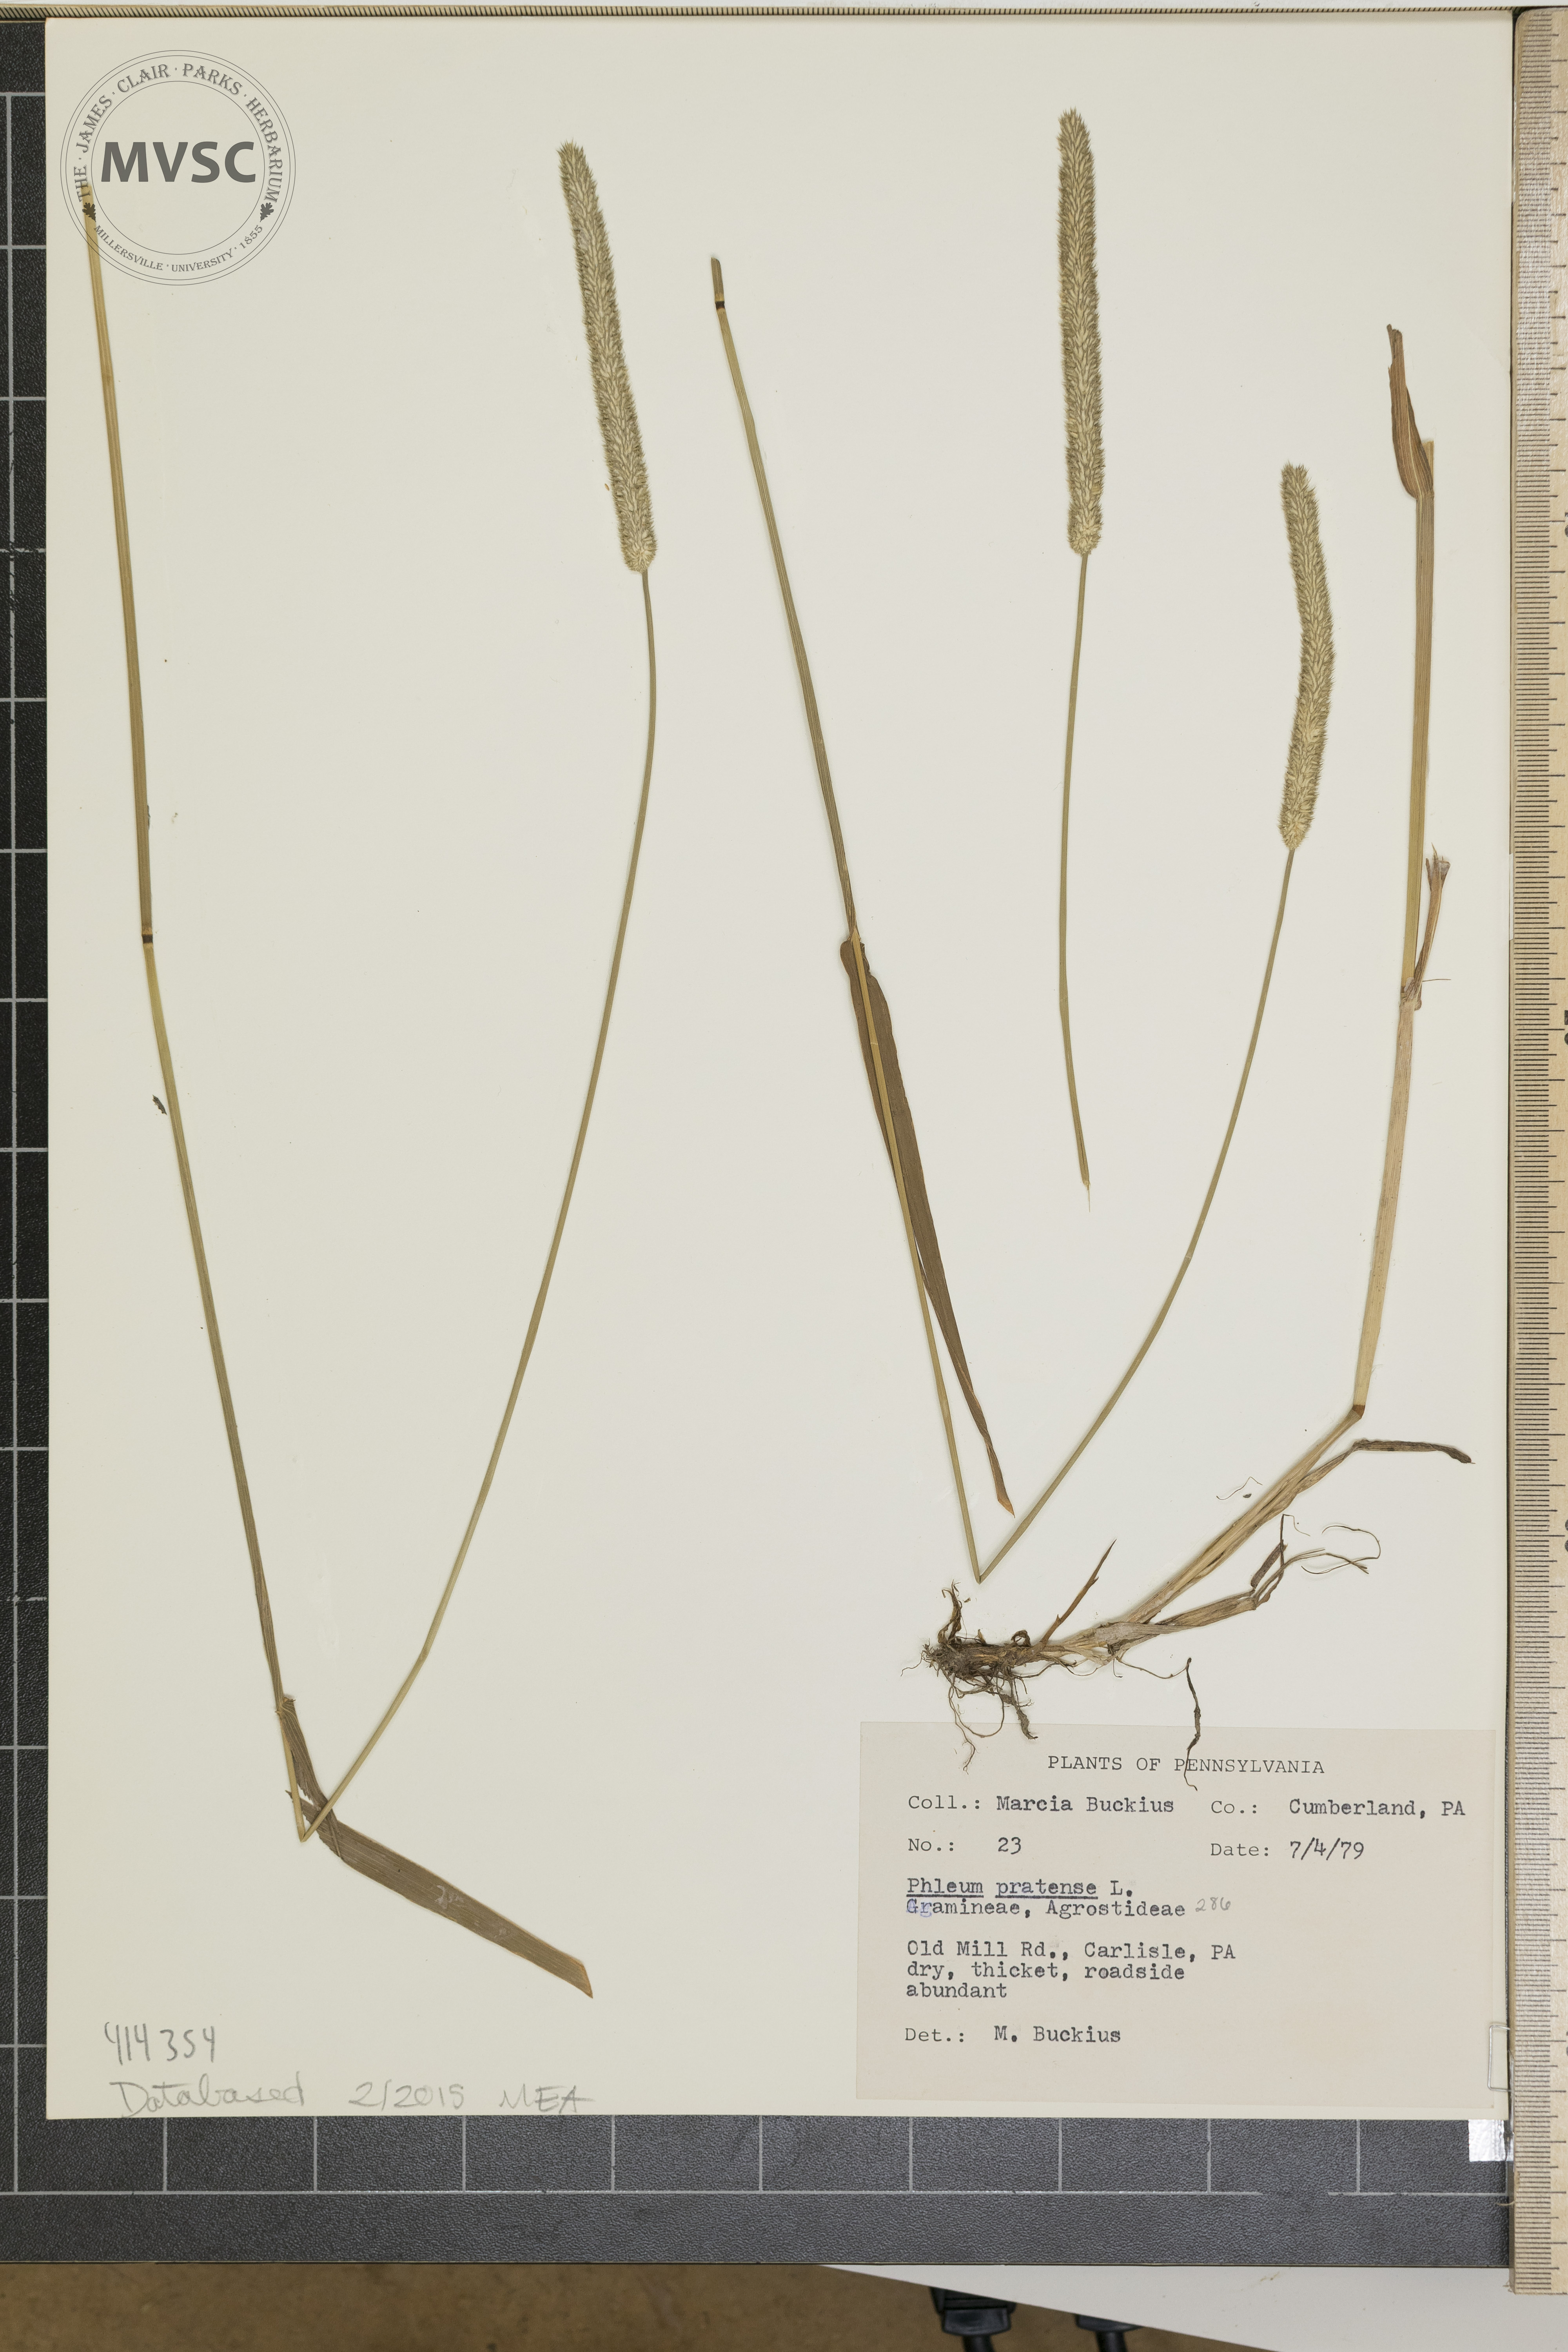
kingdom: Plantae
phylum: Tracheophyta
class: Liliopsida
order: Poales
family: Poaceae
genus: Phleum
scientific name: Phleum pratense
